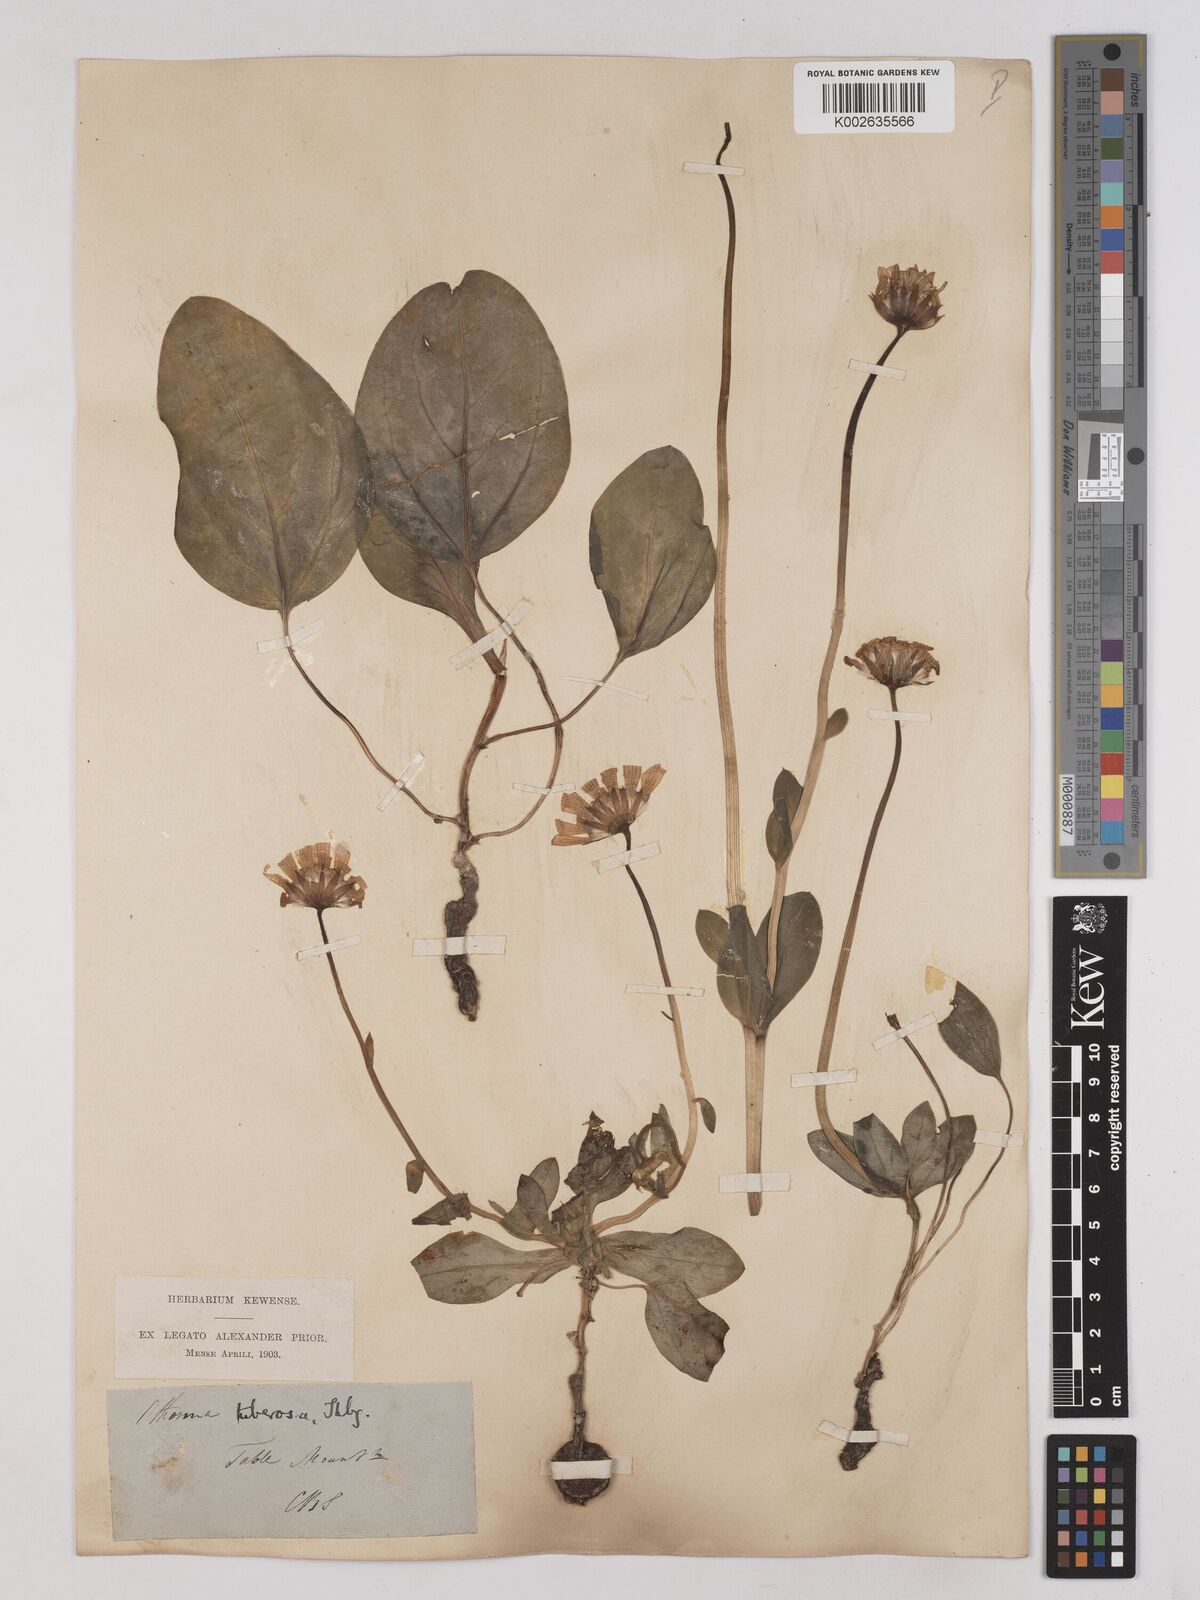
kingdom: Plantae
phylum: Tracheophyta
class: Magnoliopsida
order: Asterales
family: Asteraceae
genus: Othonna
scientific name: Othonna bulbosa
